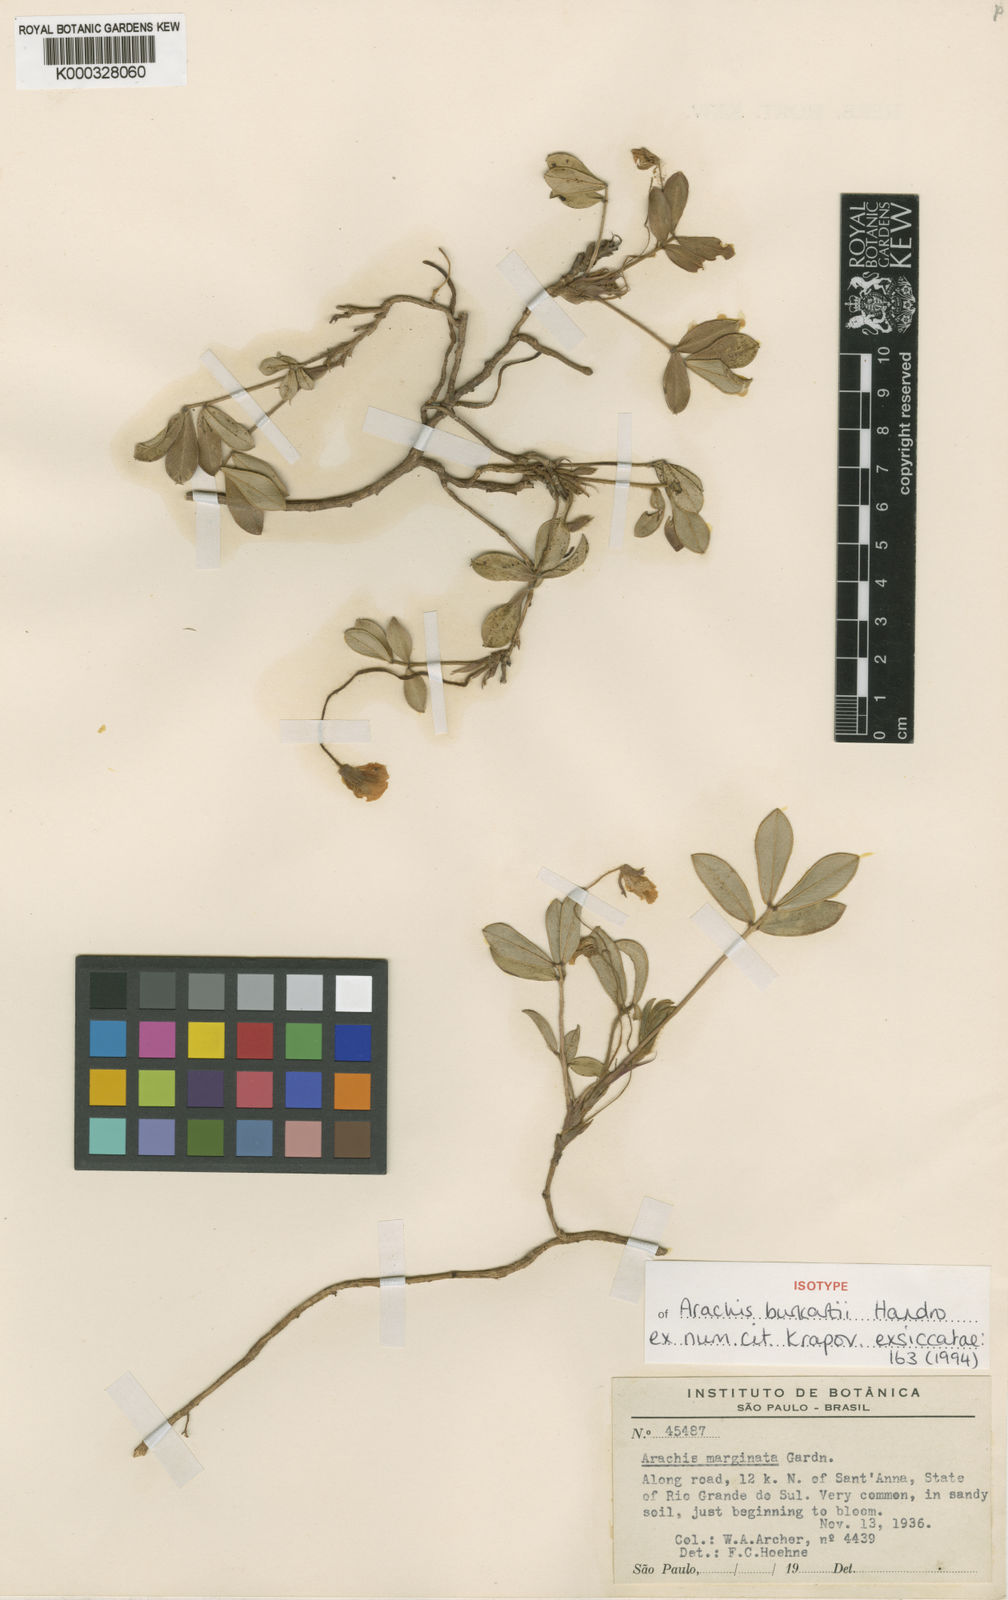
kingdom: Plantae
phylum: Tracheophyta
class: Magnoliopsida
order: Fabales
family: Fabaceae
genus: Arachis
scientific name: Arachis burkartii
